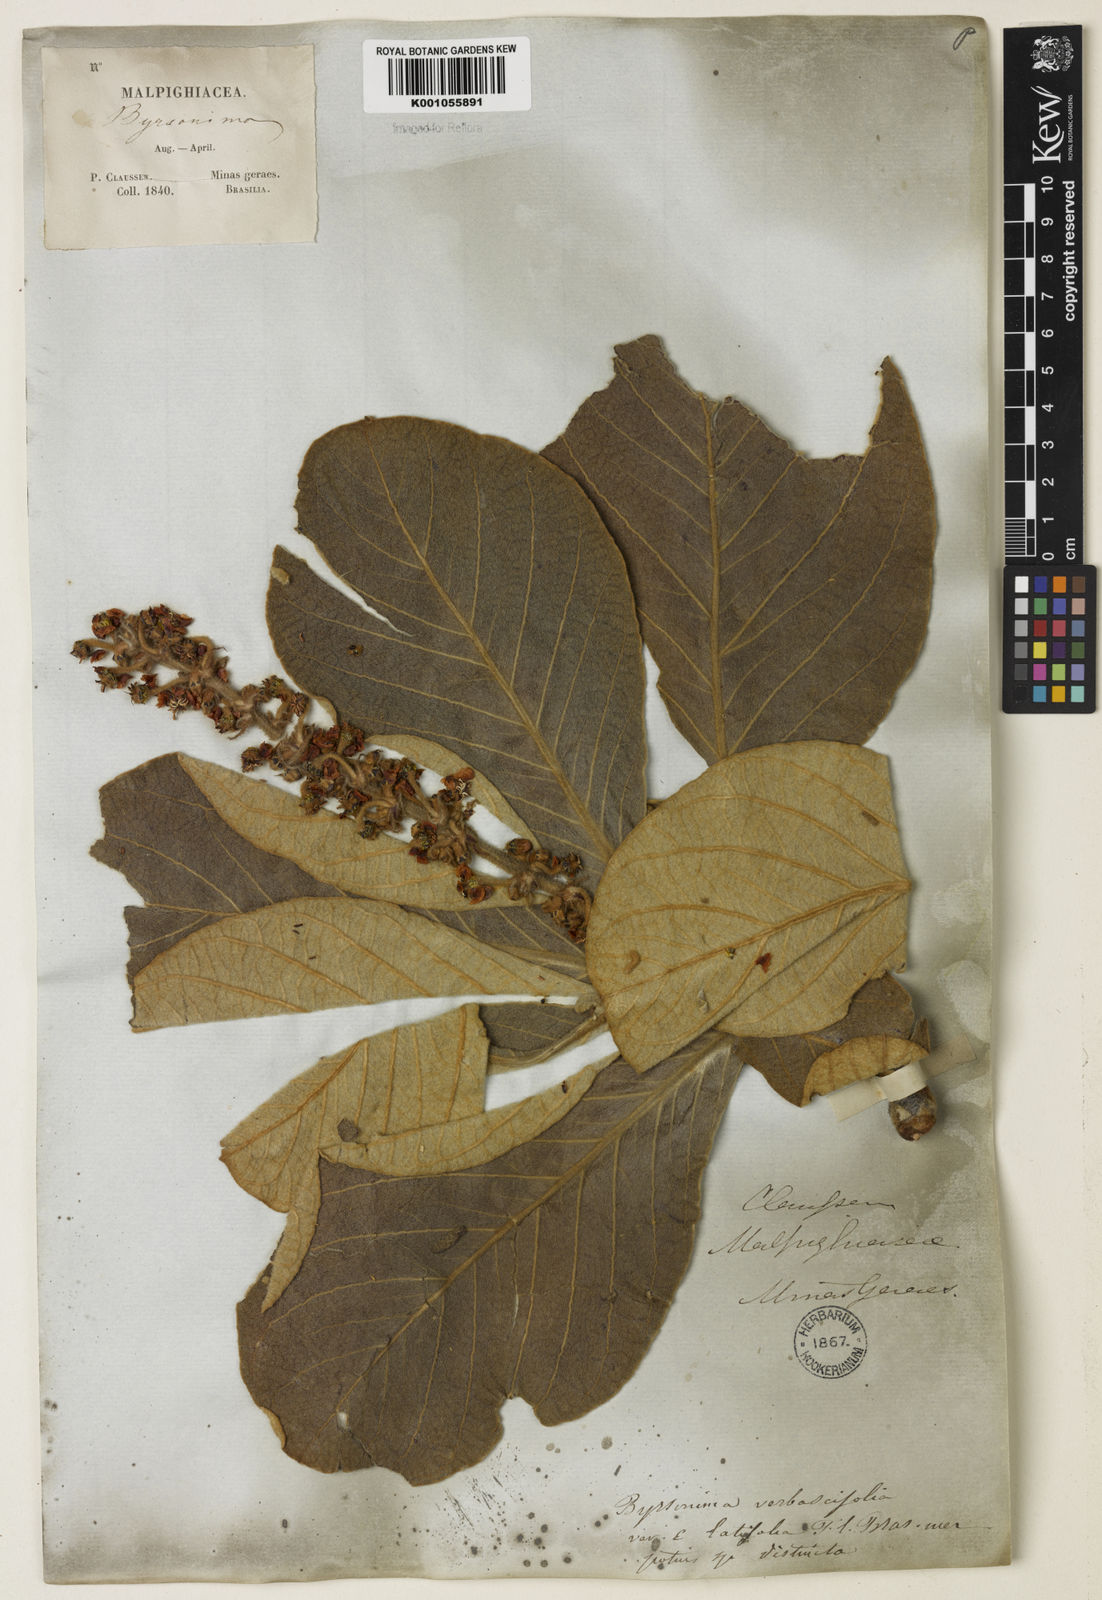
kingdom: Plantae
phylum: Tracheophyta
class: Magnoliopsida
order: Malpighiales
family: Malpighiaceae
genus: Byrsonima
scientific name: Byrsonima verbascifolia
